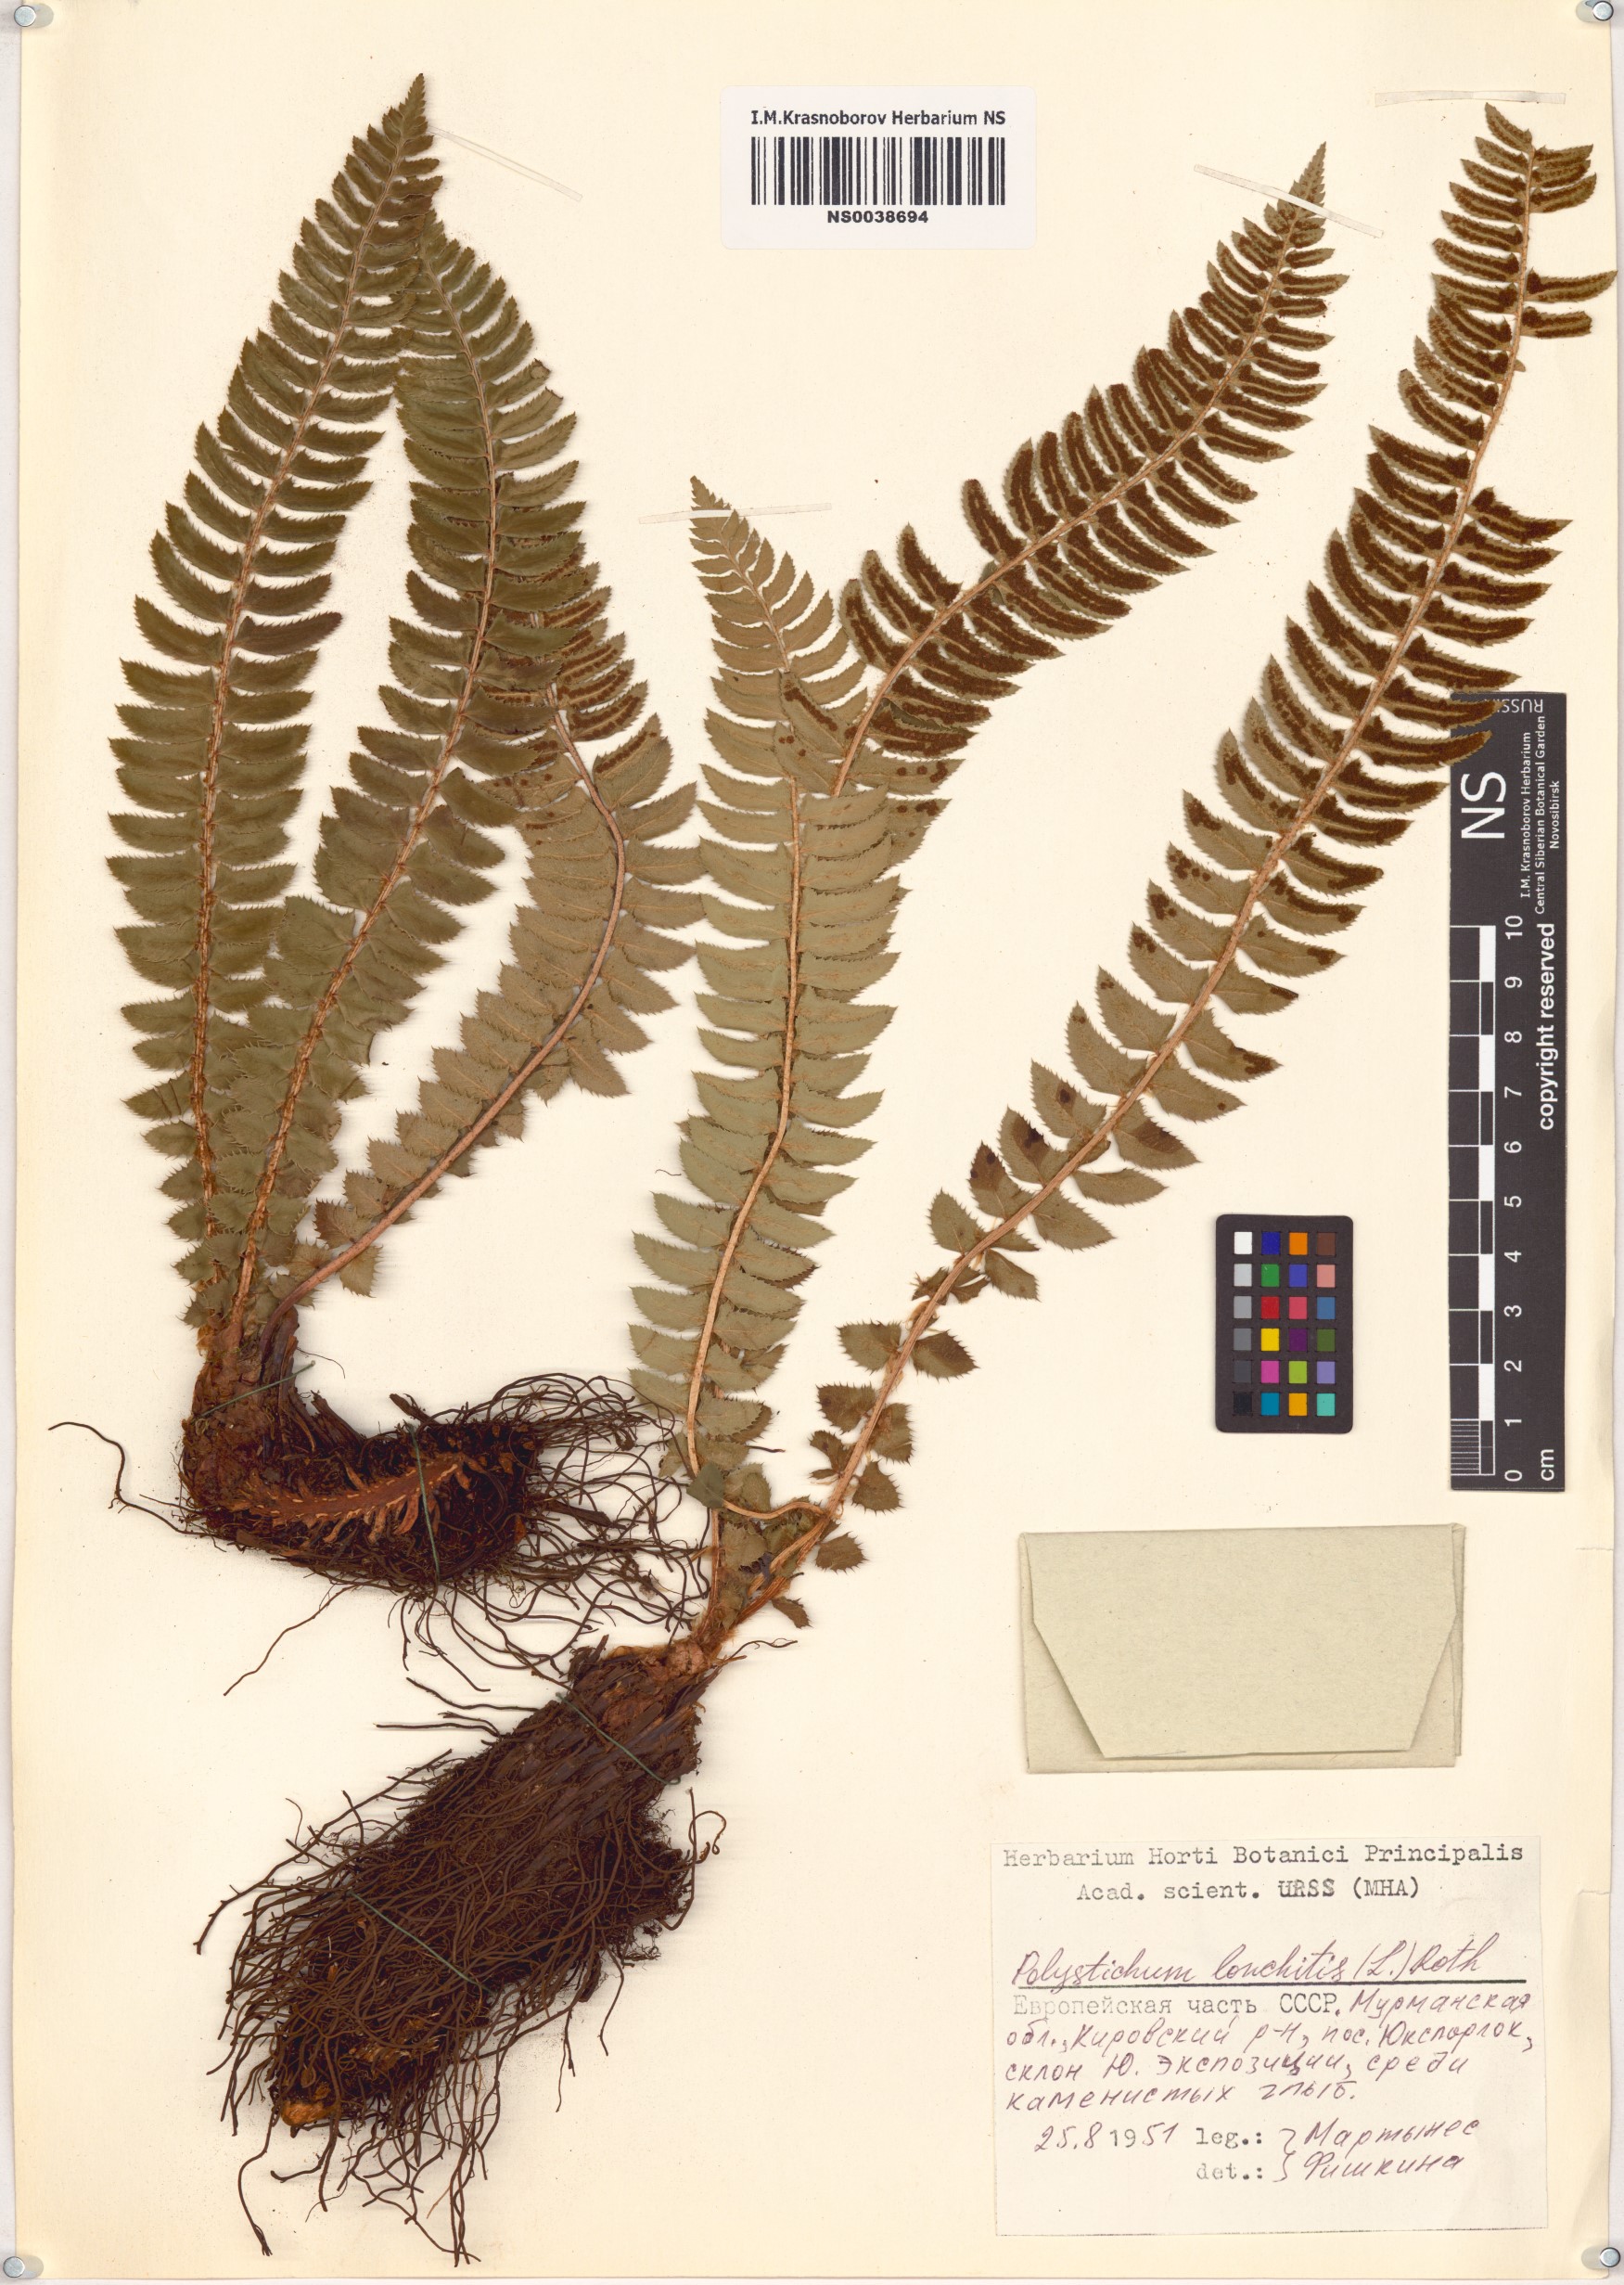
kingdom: Plantae
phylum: Tracheophyta
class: Polypodiopsida
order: Polypodiales
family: Dryopteridaceae
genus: Polystichum
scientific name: Polystichum lonchitis
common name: Holly fern
